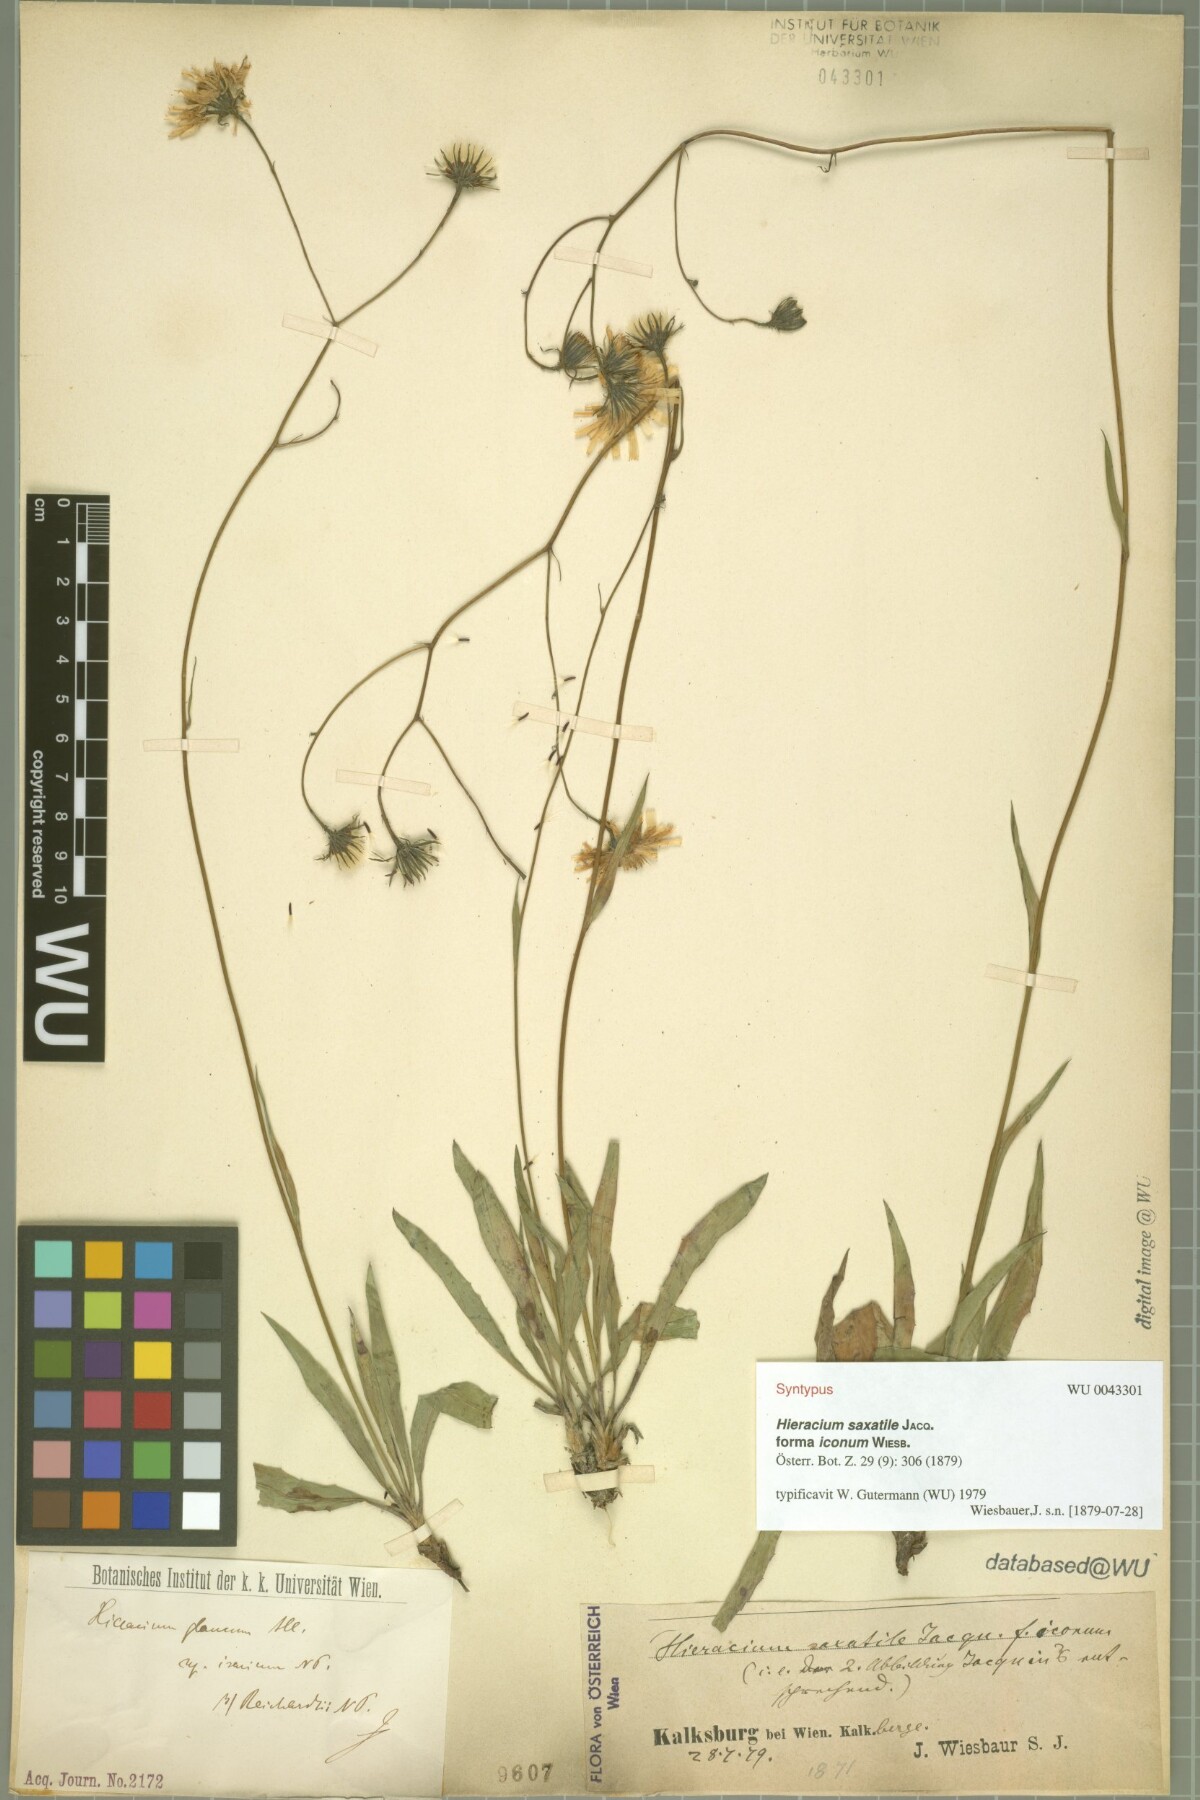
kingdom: Plantae
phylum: Tracheophyta
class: Magnoliopsida
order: Asterales
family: Asteraceae
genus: Hieracium
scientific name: Hieracium saxatile
